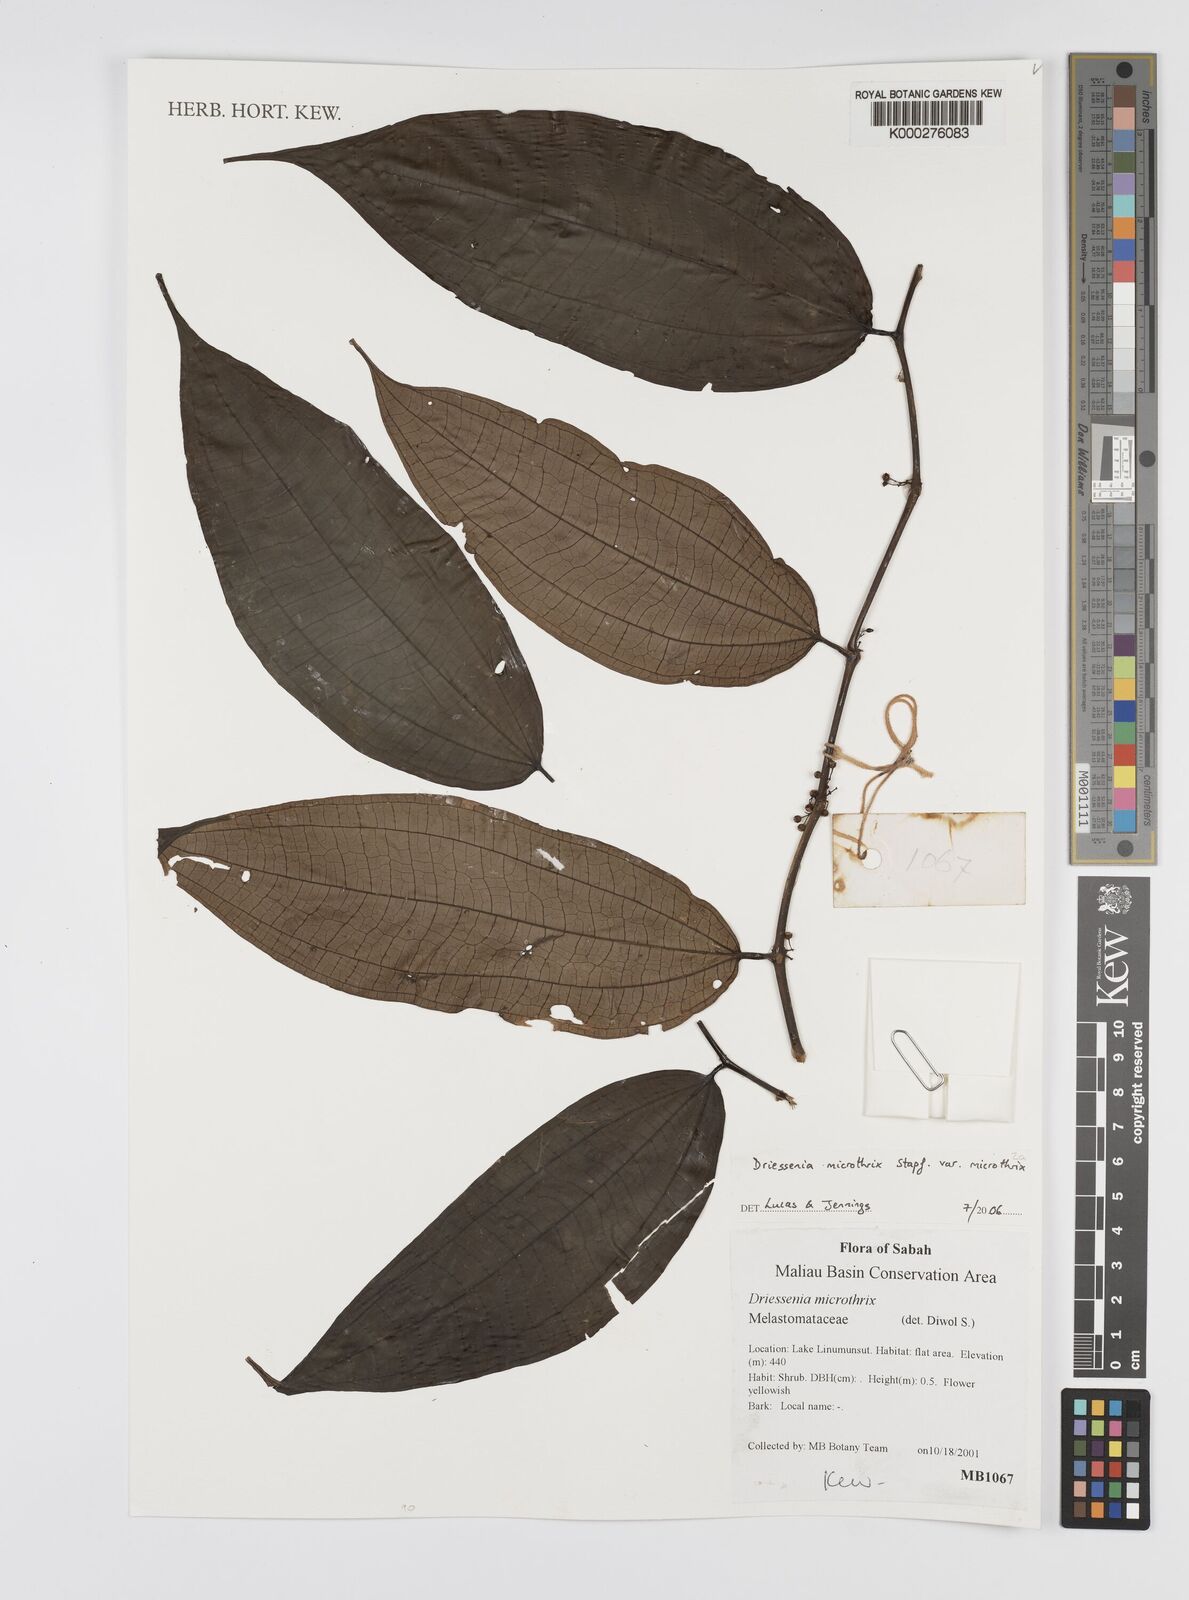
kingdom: Plantae
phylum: Tracheophyta
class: Magnoliopsida
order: Myrtales
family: Melastomataceae
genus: Driessenia
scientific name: Driessenia microthrix
